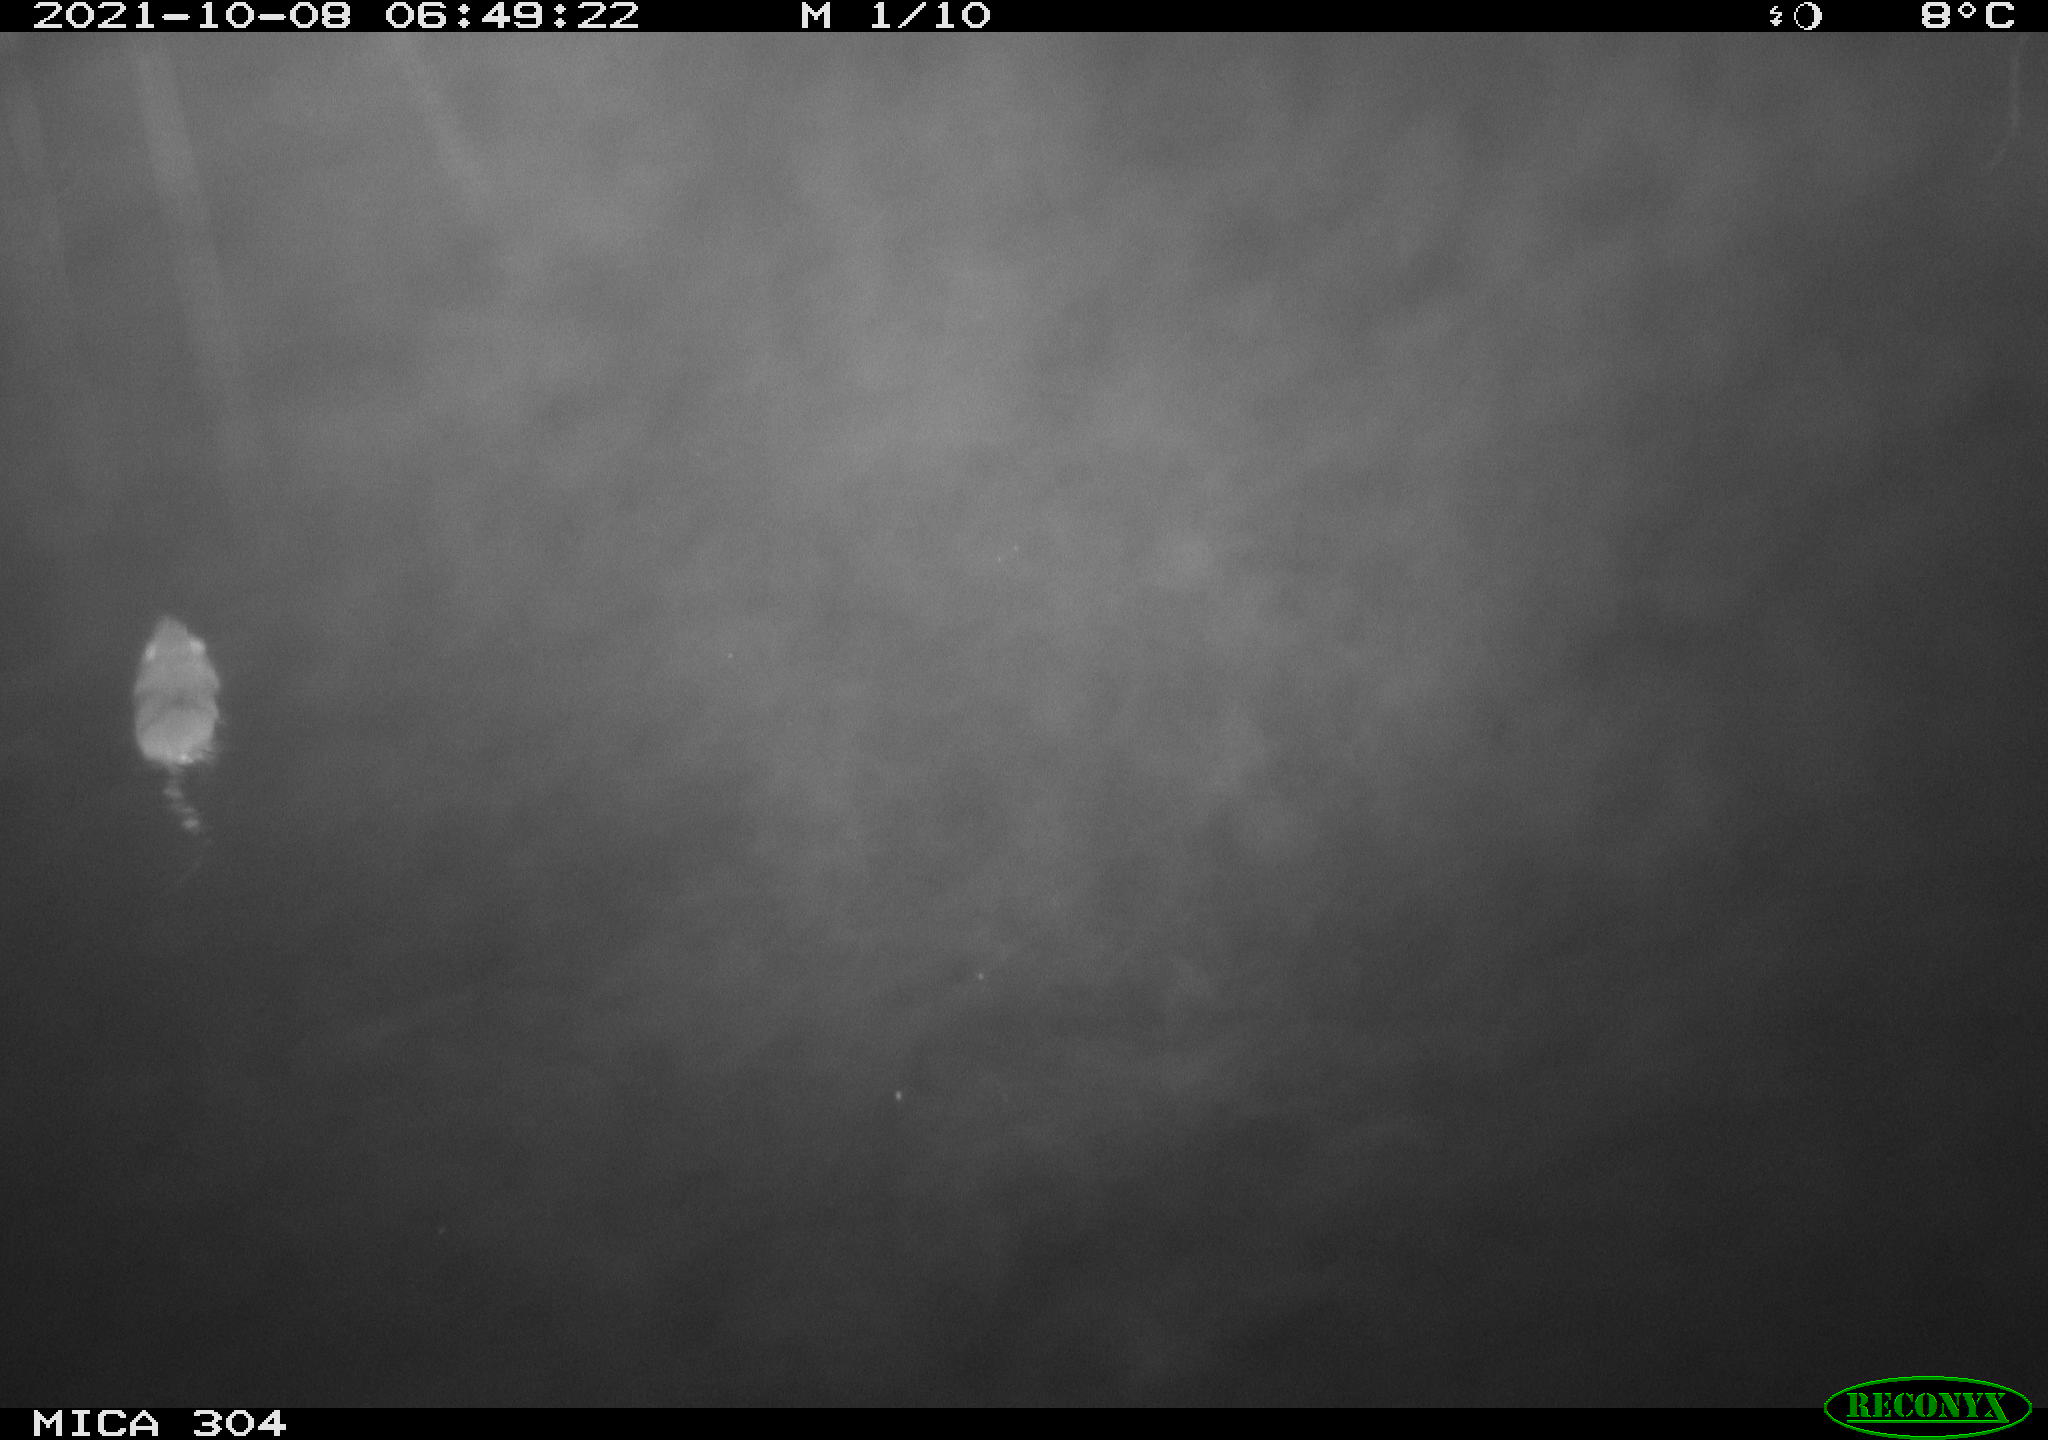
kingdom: Animalia
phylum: Chordata
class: Mammalia
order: Rodentia
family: Muridae
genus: Rattus
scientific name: Rattus norvegicus
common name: Brown rat
